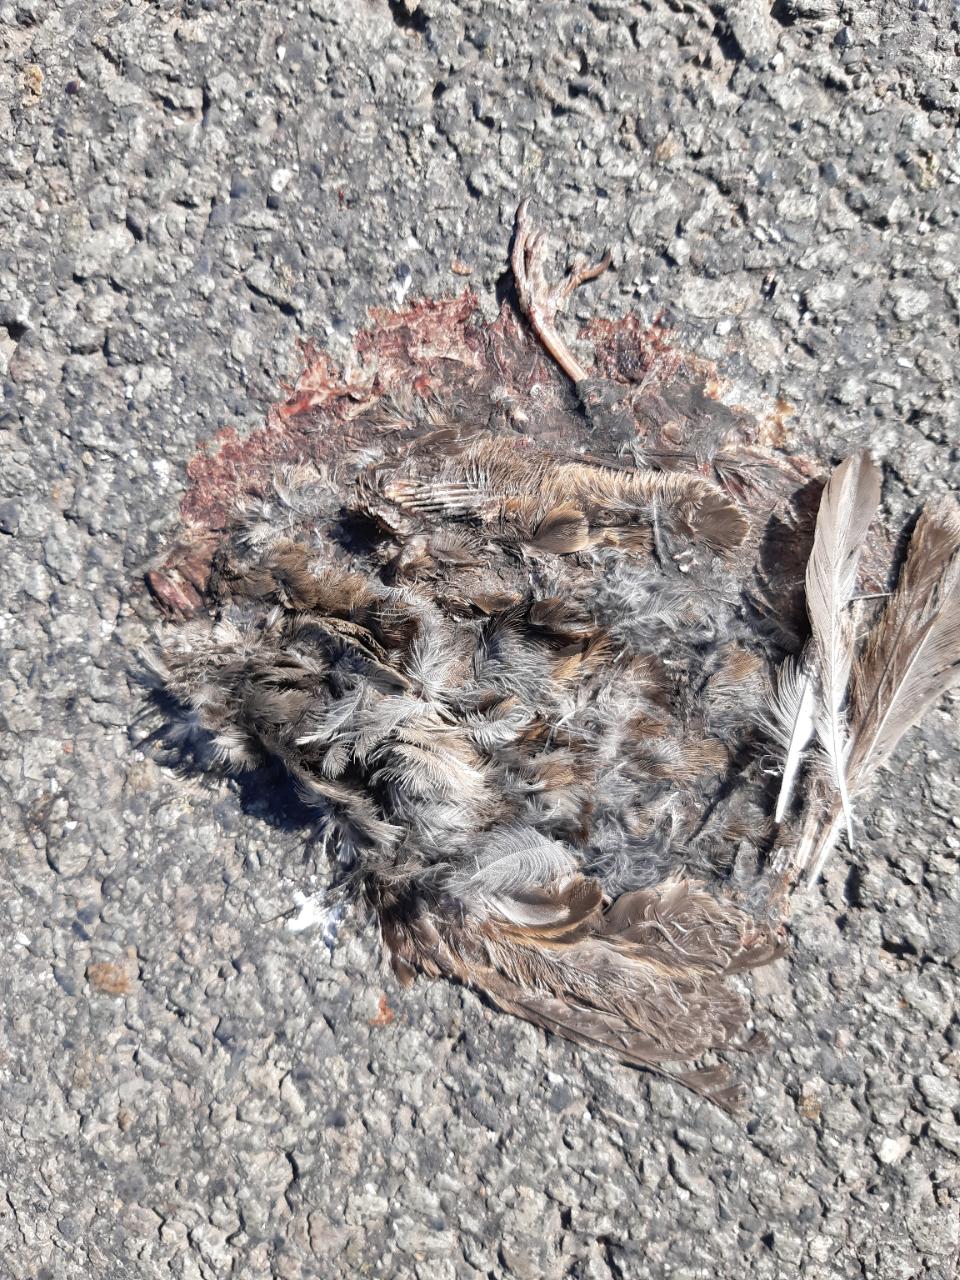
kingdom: Animalia
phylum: Chordata
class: Aves
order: Passeriformes
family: Passeridae
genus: Passer
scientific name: Passer
